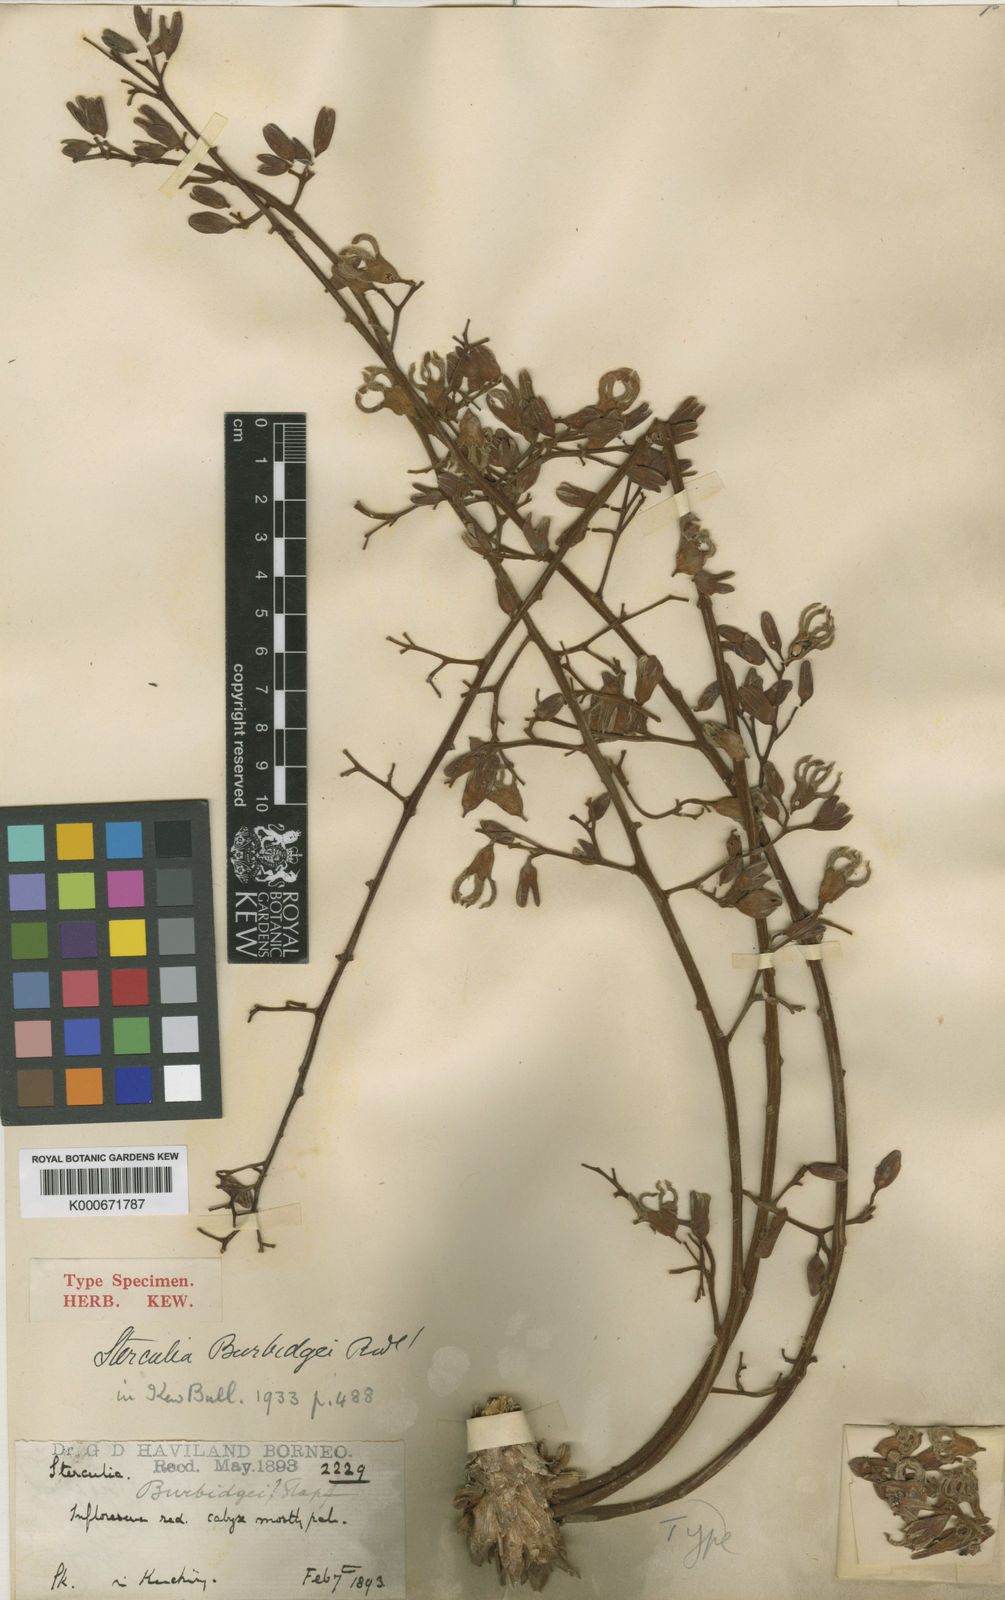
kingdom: Plantae
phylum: Tracheophyta
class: Magnoliopsida
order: Malvales
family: Malvaceae
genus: Sterculia
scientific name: Sterculia stipulata
